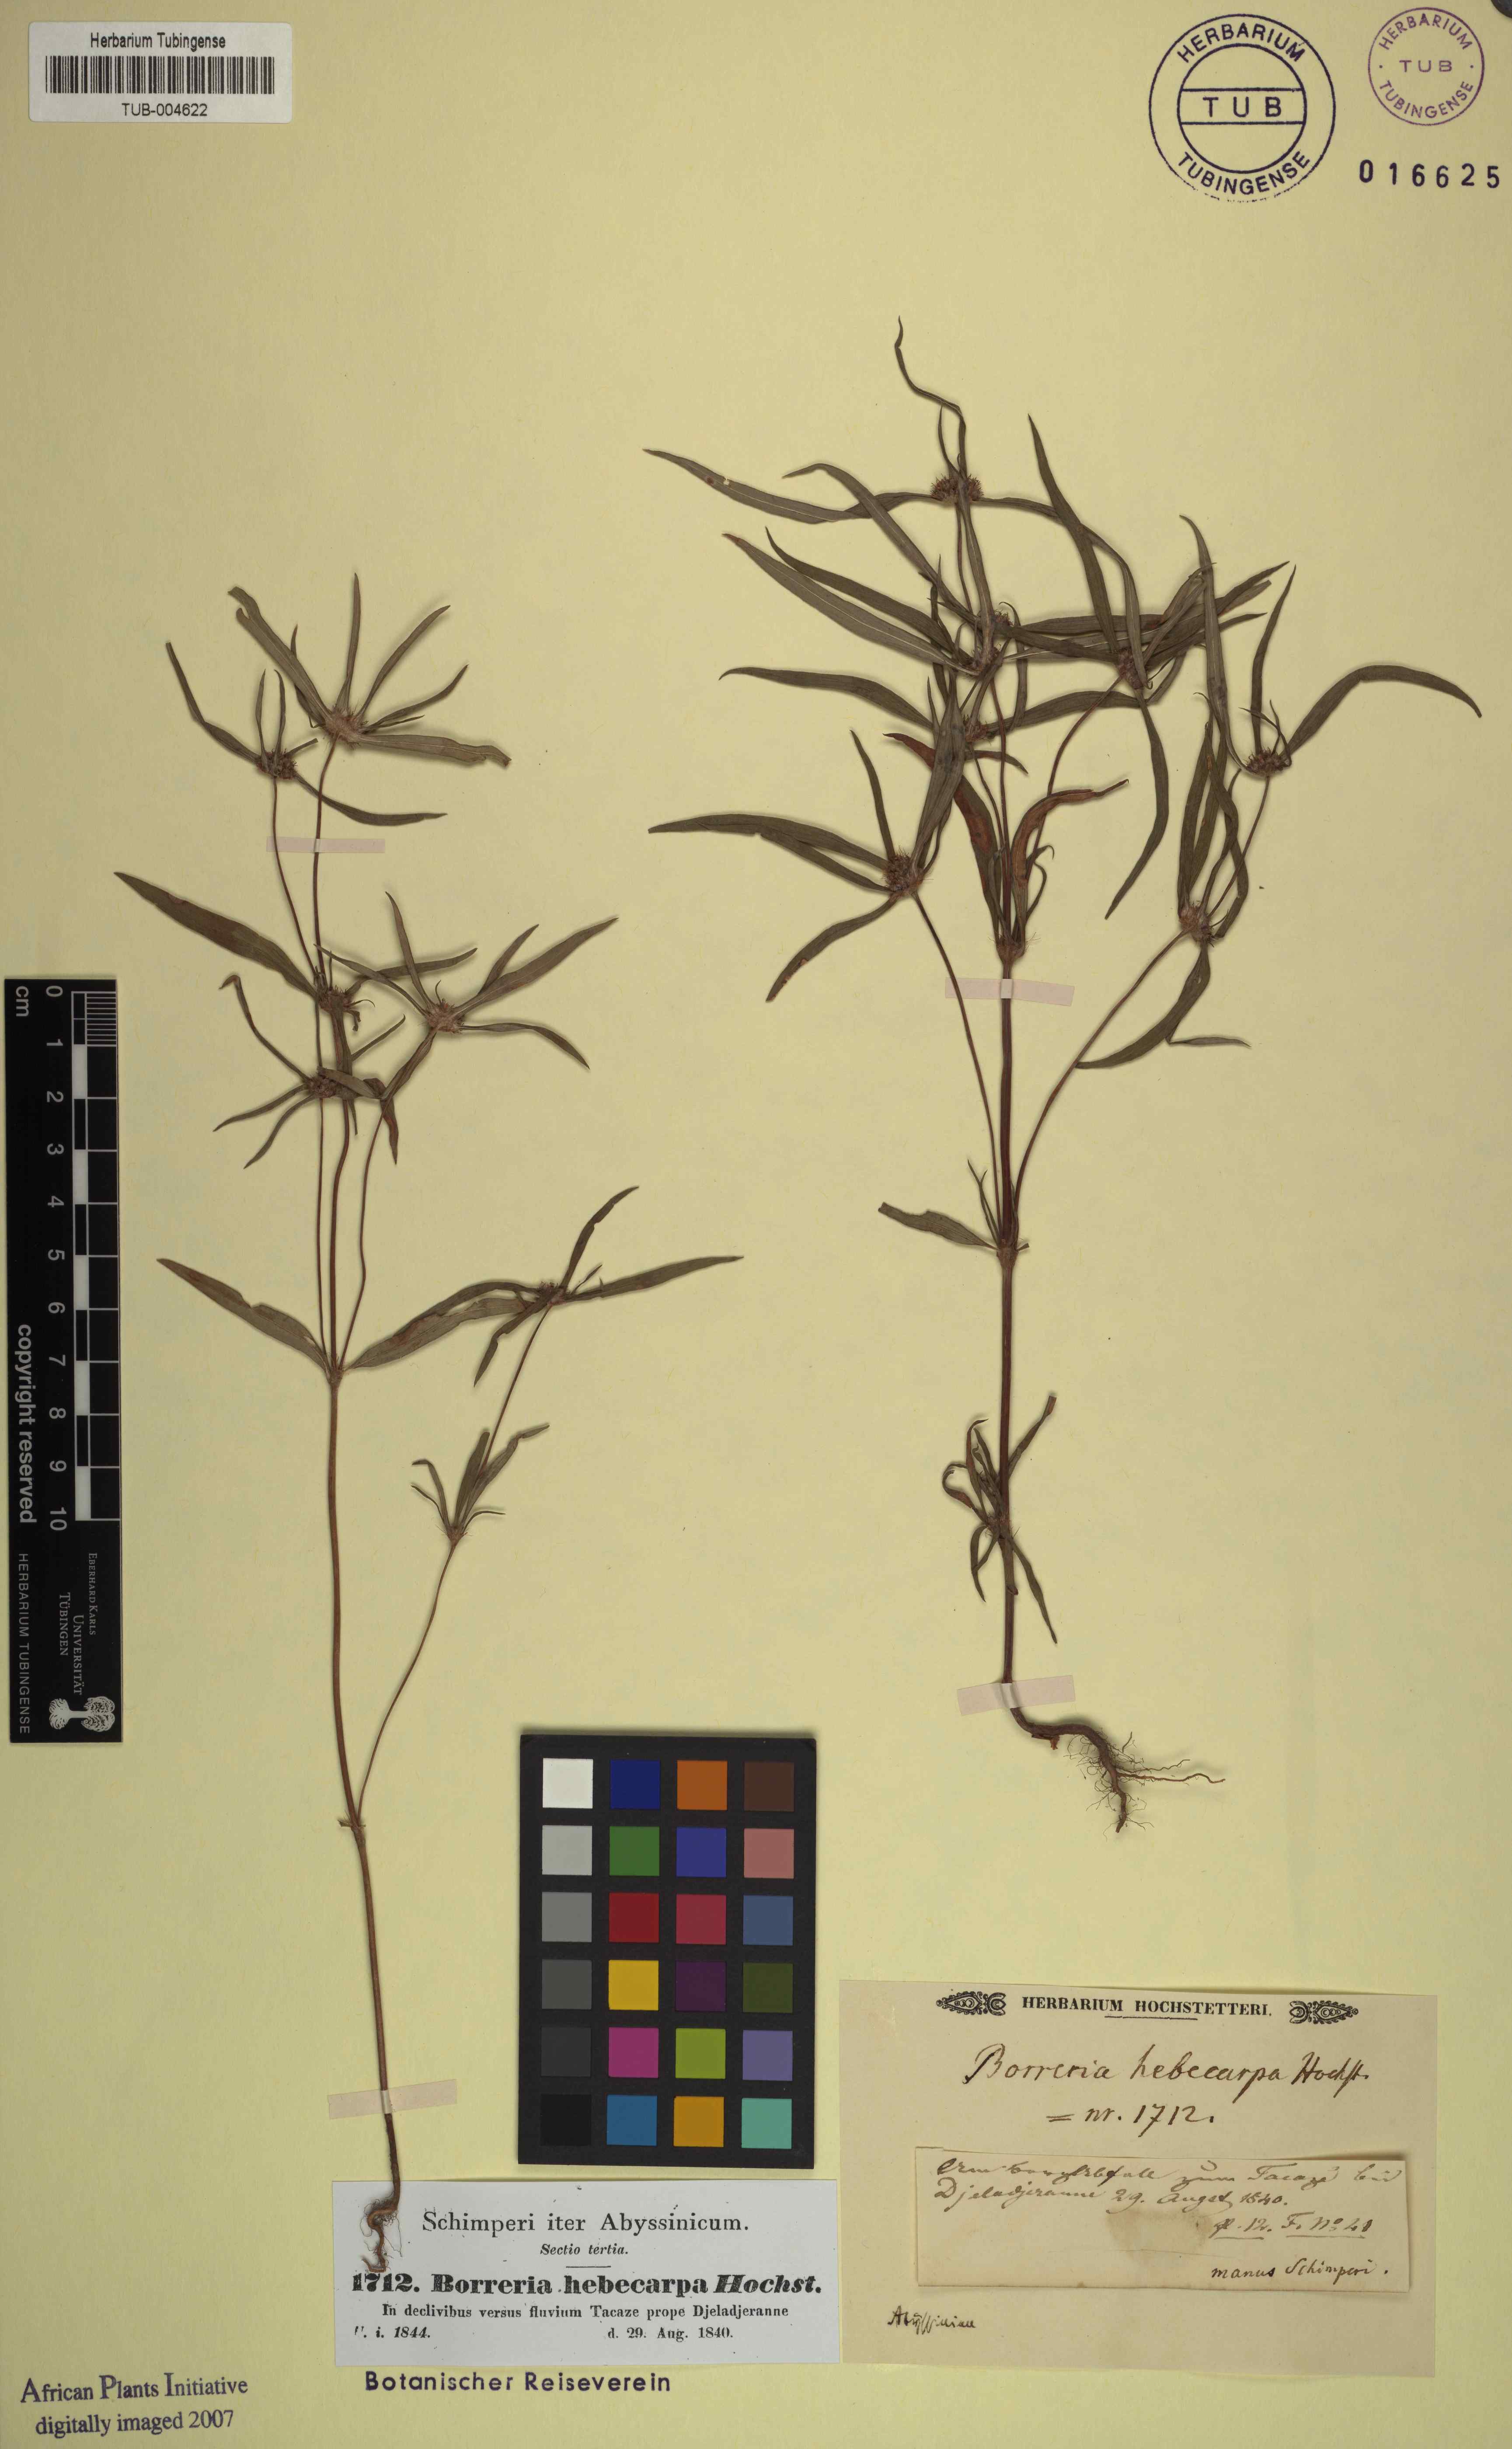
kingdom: Plantae
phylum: Tracheophyta
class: Magnoliopsida
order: Gentianales
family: Rubiaceae
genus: Spermacoce
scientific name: Spermacoce chaetocephala
